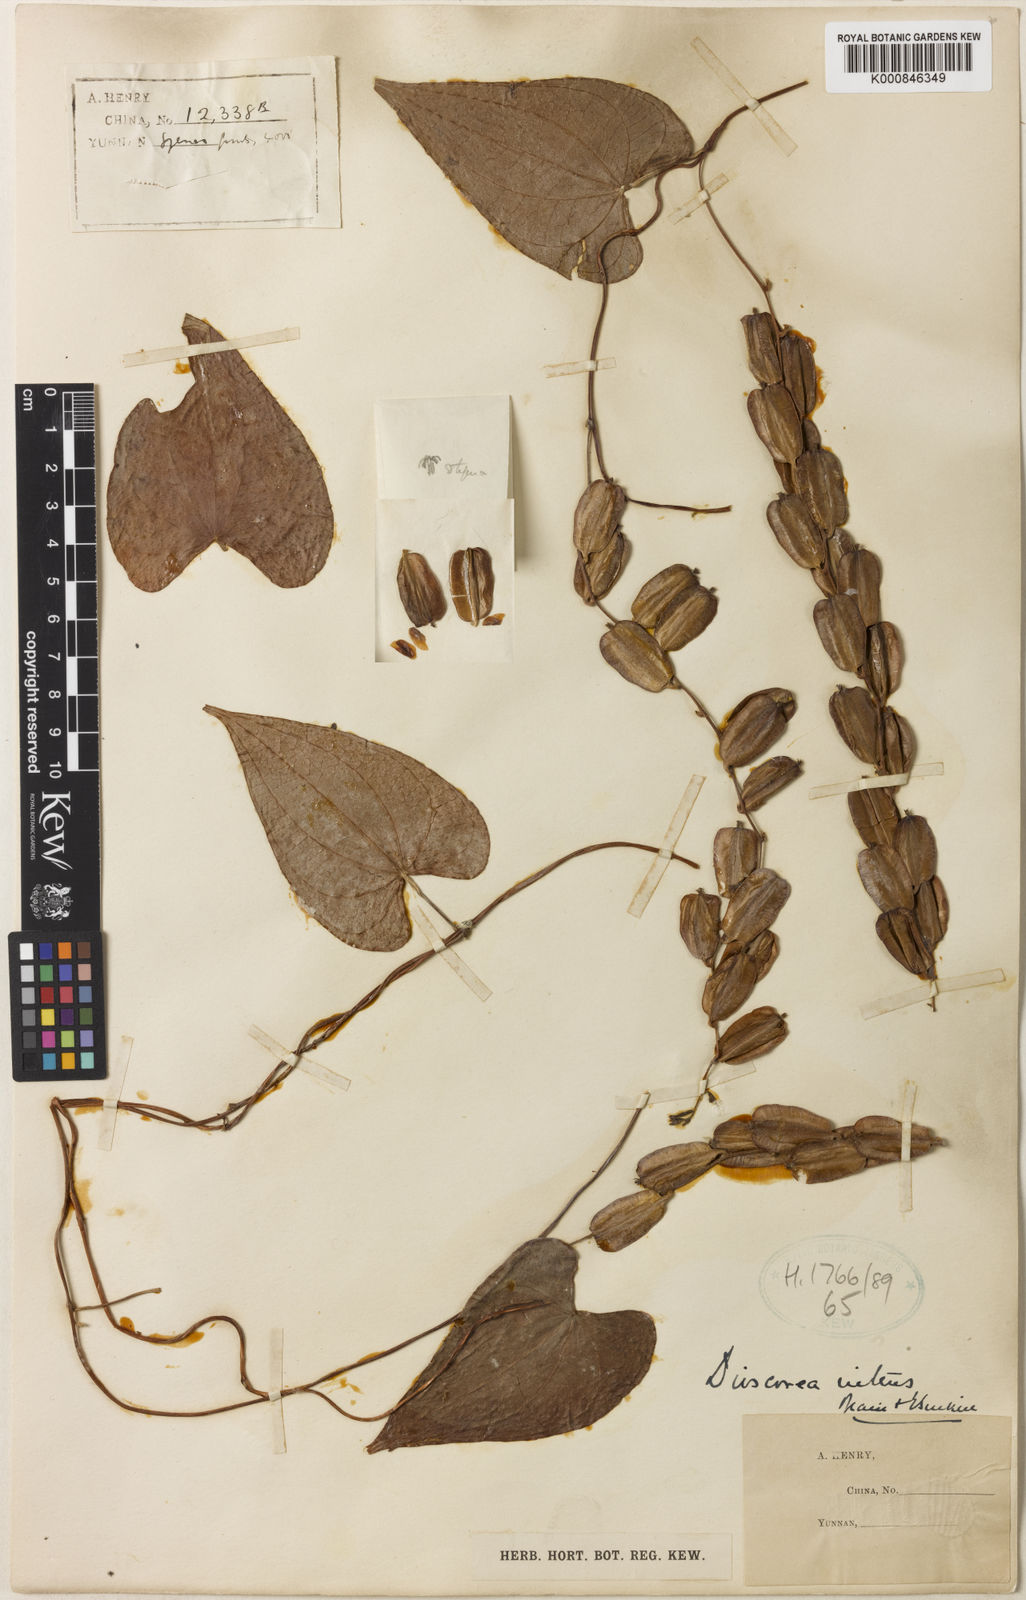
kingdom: Plantae
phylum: Tracheophyta
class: Liliopsida
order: Dioscoreales
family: Dioscoreaceae
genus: Dioscorea
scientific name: Dioscorea nitens
